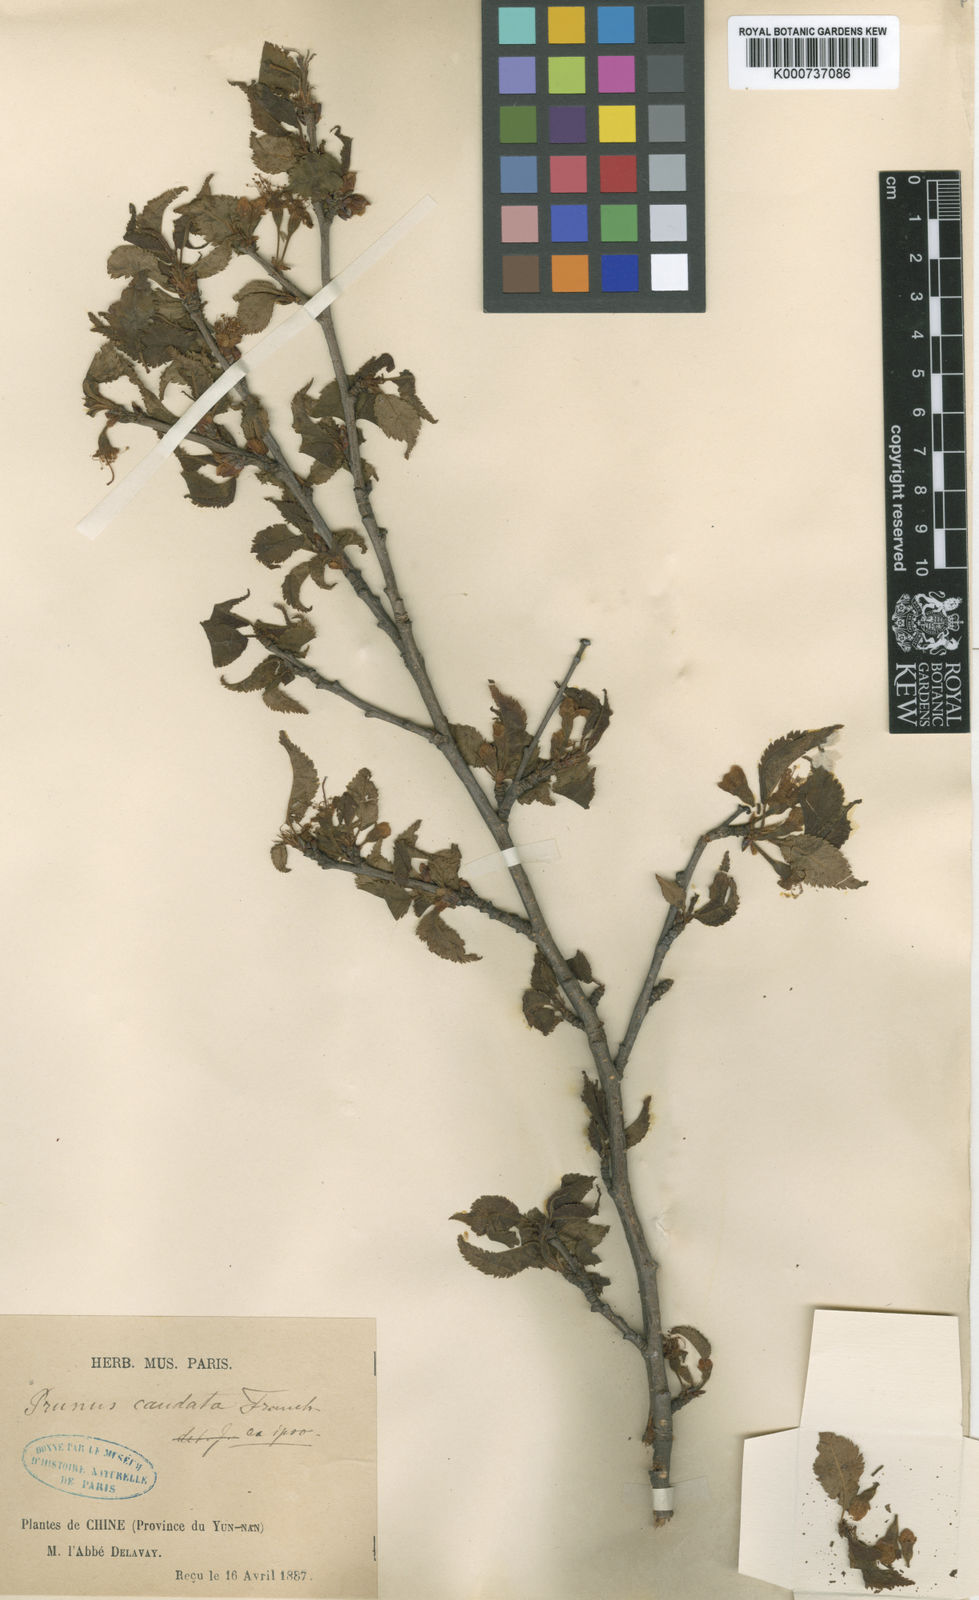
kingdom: Plantae
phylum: Tracheophyta
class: Magnoliopsida
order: Rosales
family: Rosaceae
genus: Prunus
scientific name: Prunus caudata
